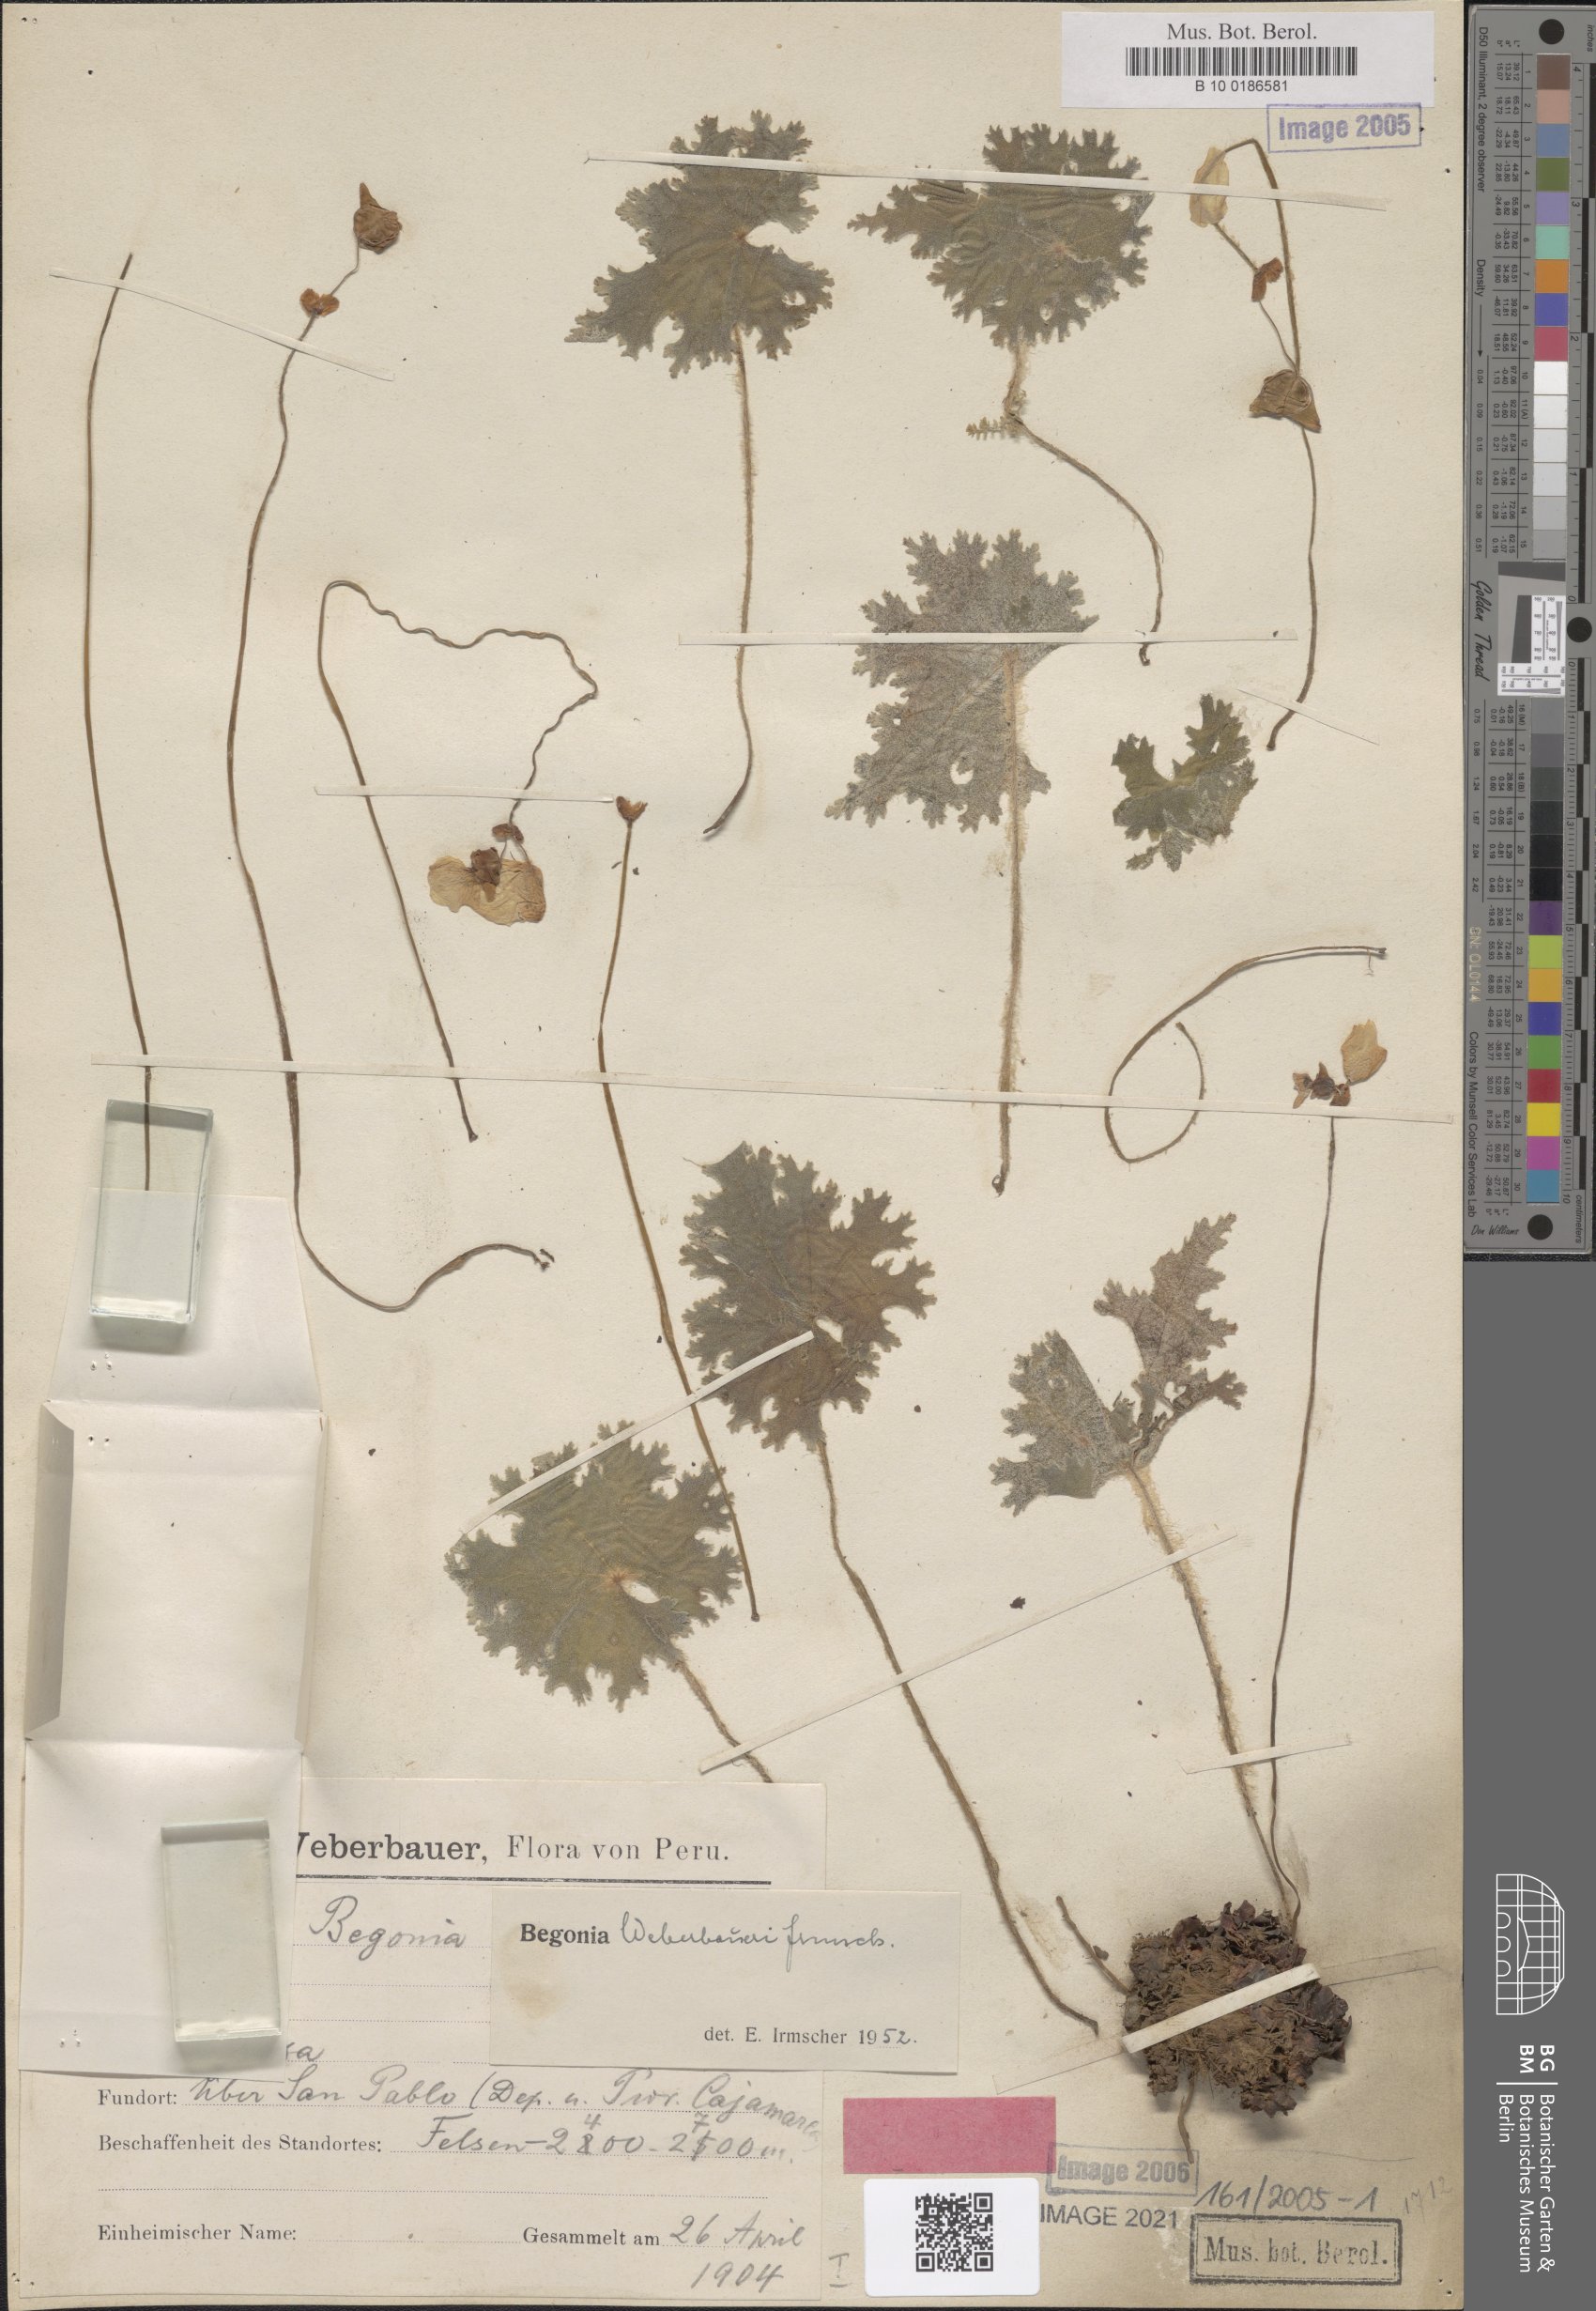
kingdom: Plantae
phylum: Tracheophyta
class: Magnoliopsida
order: Cucurbitales
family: Begoniaceae
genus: Begonia
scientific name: Begonia weberbaueri
